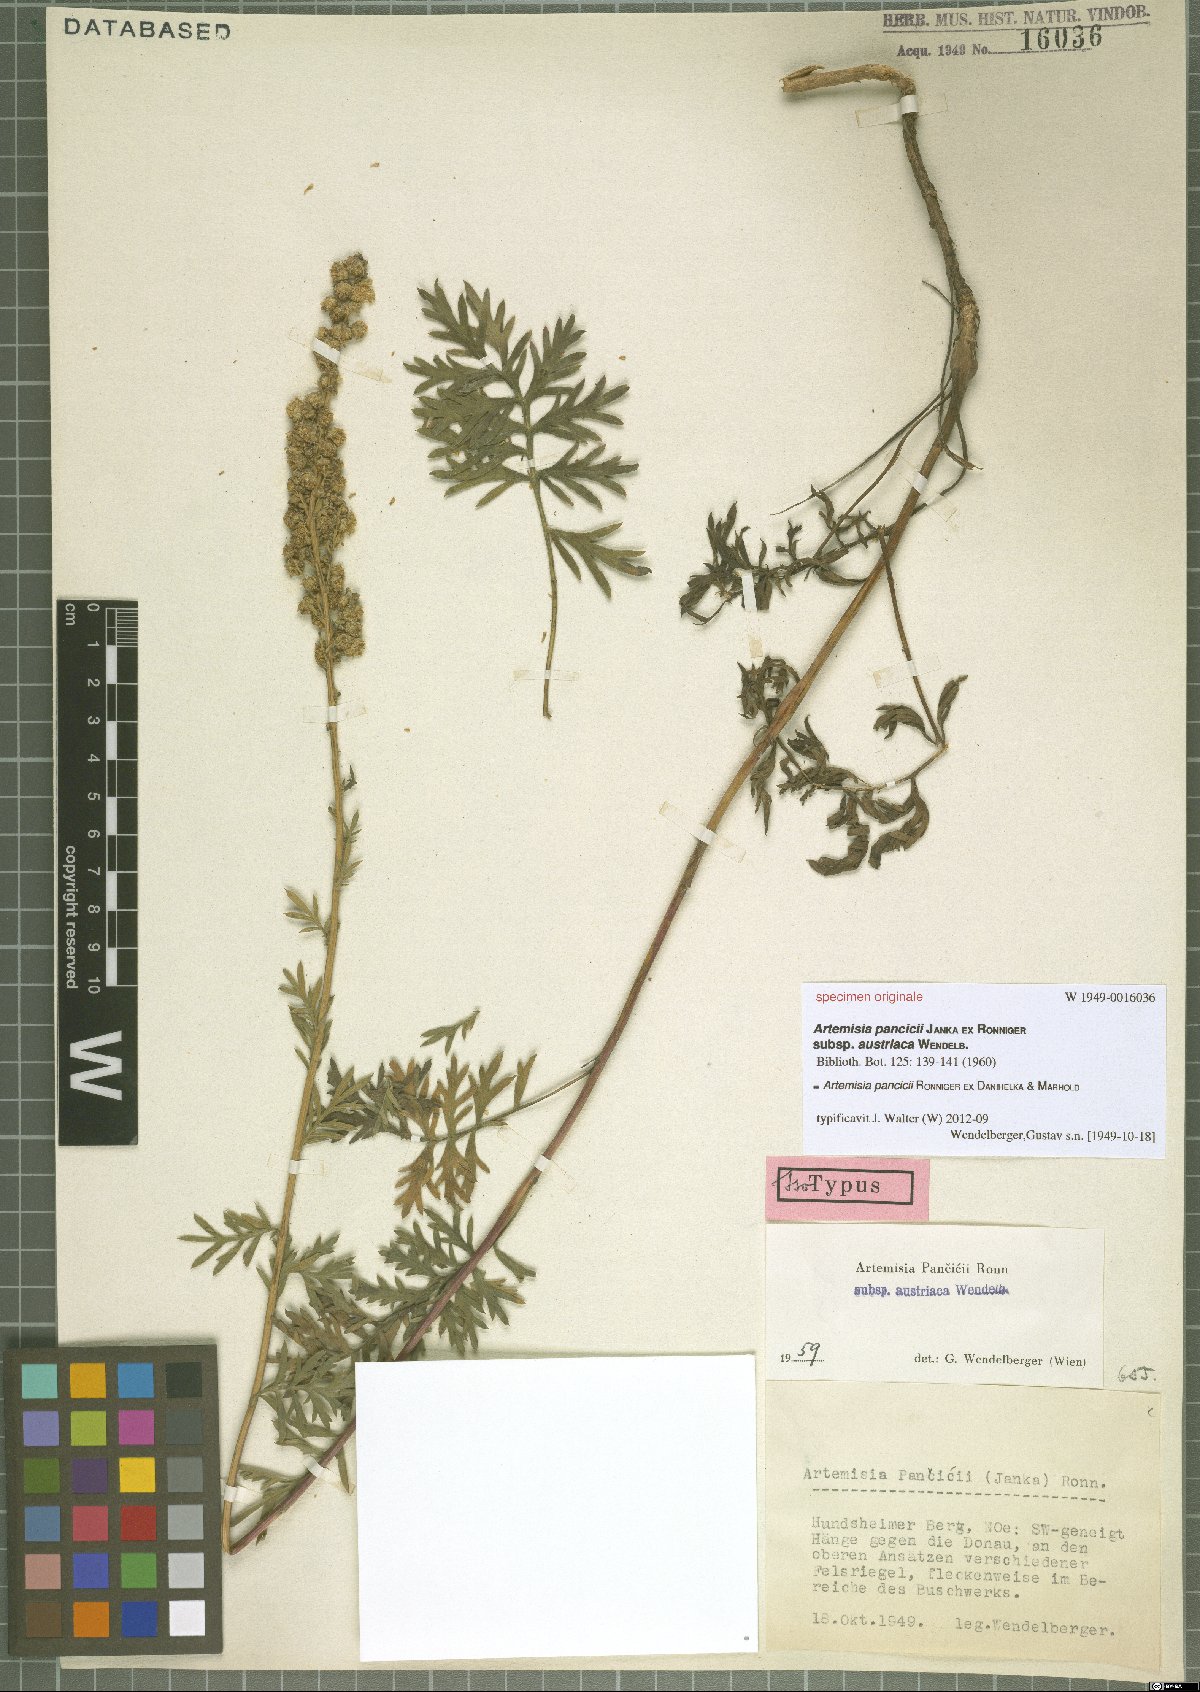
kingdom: Plantae
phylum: Tracheophyta
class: Magnoliopsida
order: Asterales
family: Asteraceae
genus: Artemisia
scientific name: Artemisia pancicii
